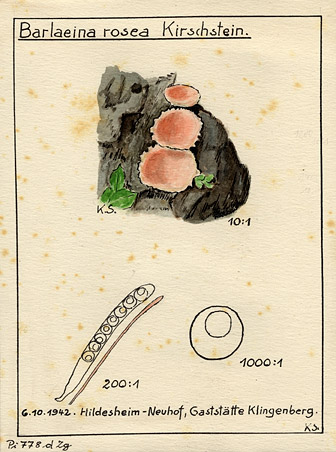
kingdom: Fungi
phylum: Ascomycota
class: Pezizomycetes
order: Pezizales
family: Pyronemataceae
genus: Barlaeina
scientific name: Barlaeina rosea
